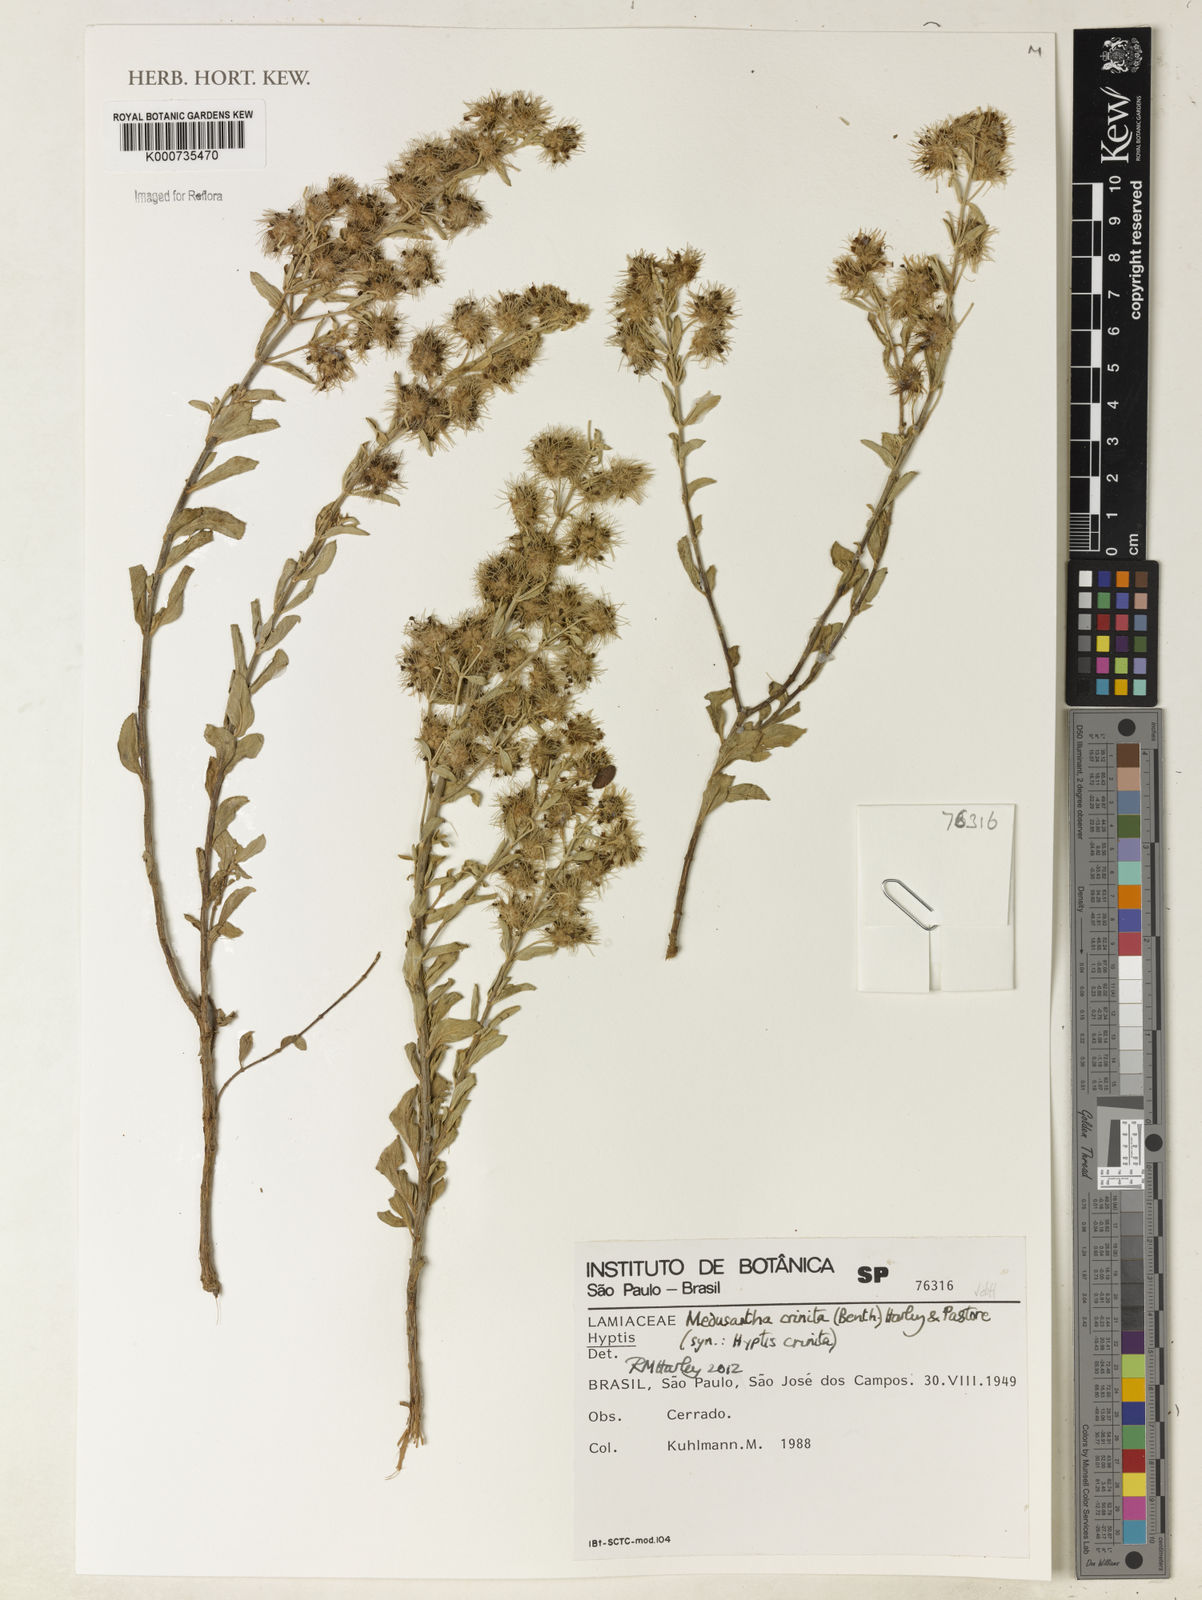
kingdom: Plantae
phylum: Tracheophyta
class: Magnoliopsida
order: Lamiales
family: Lamiaceae
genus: Medusantha
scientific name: Medusantha crinita
